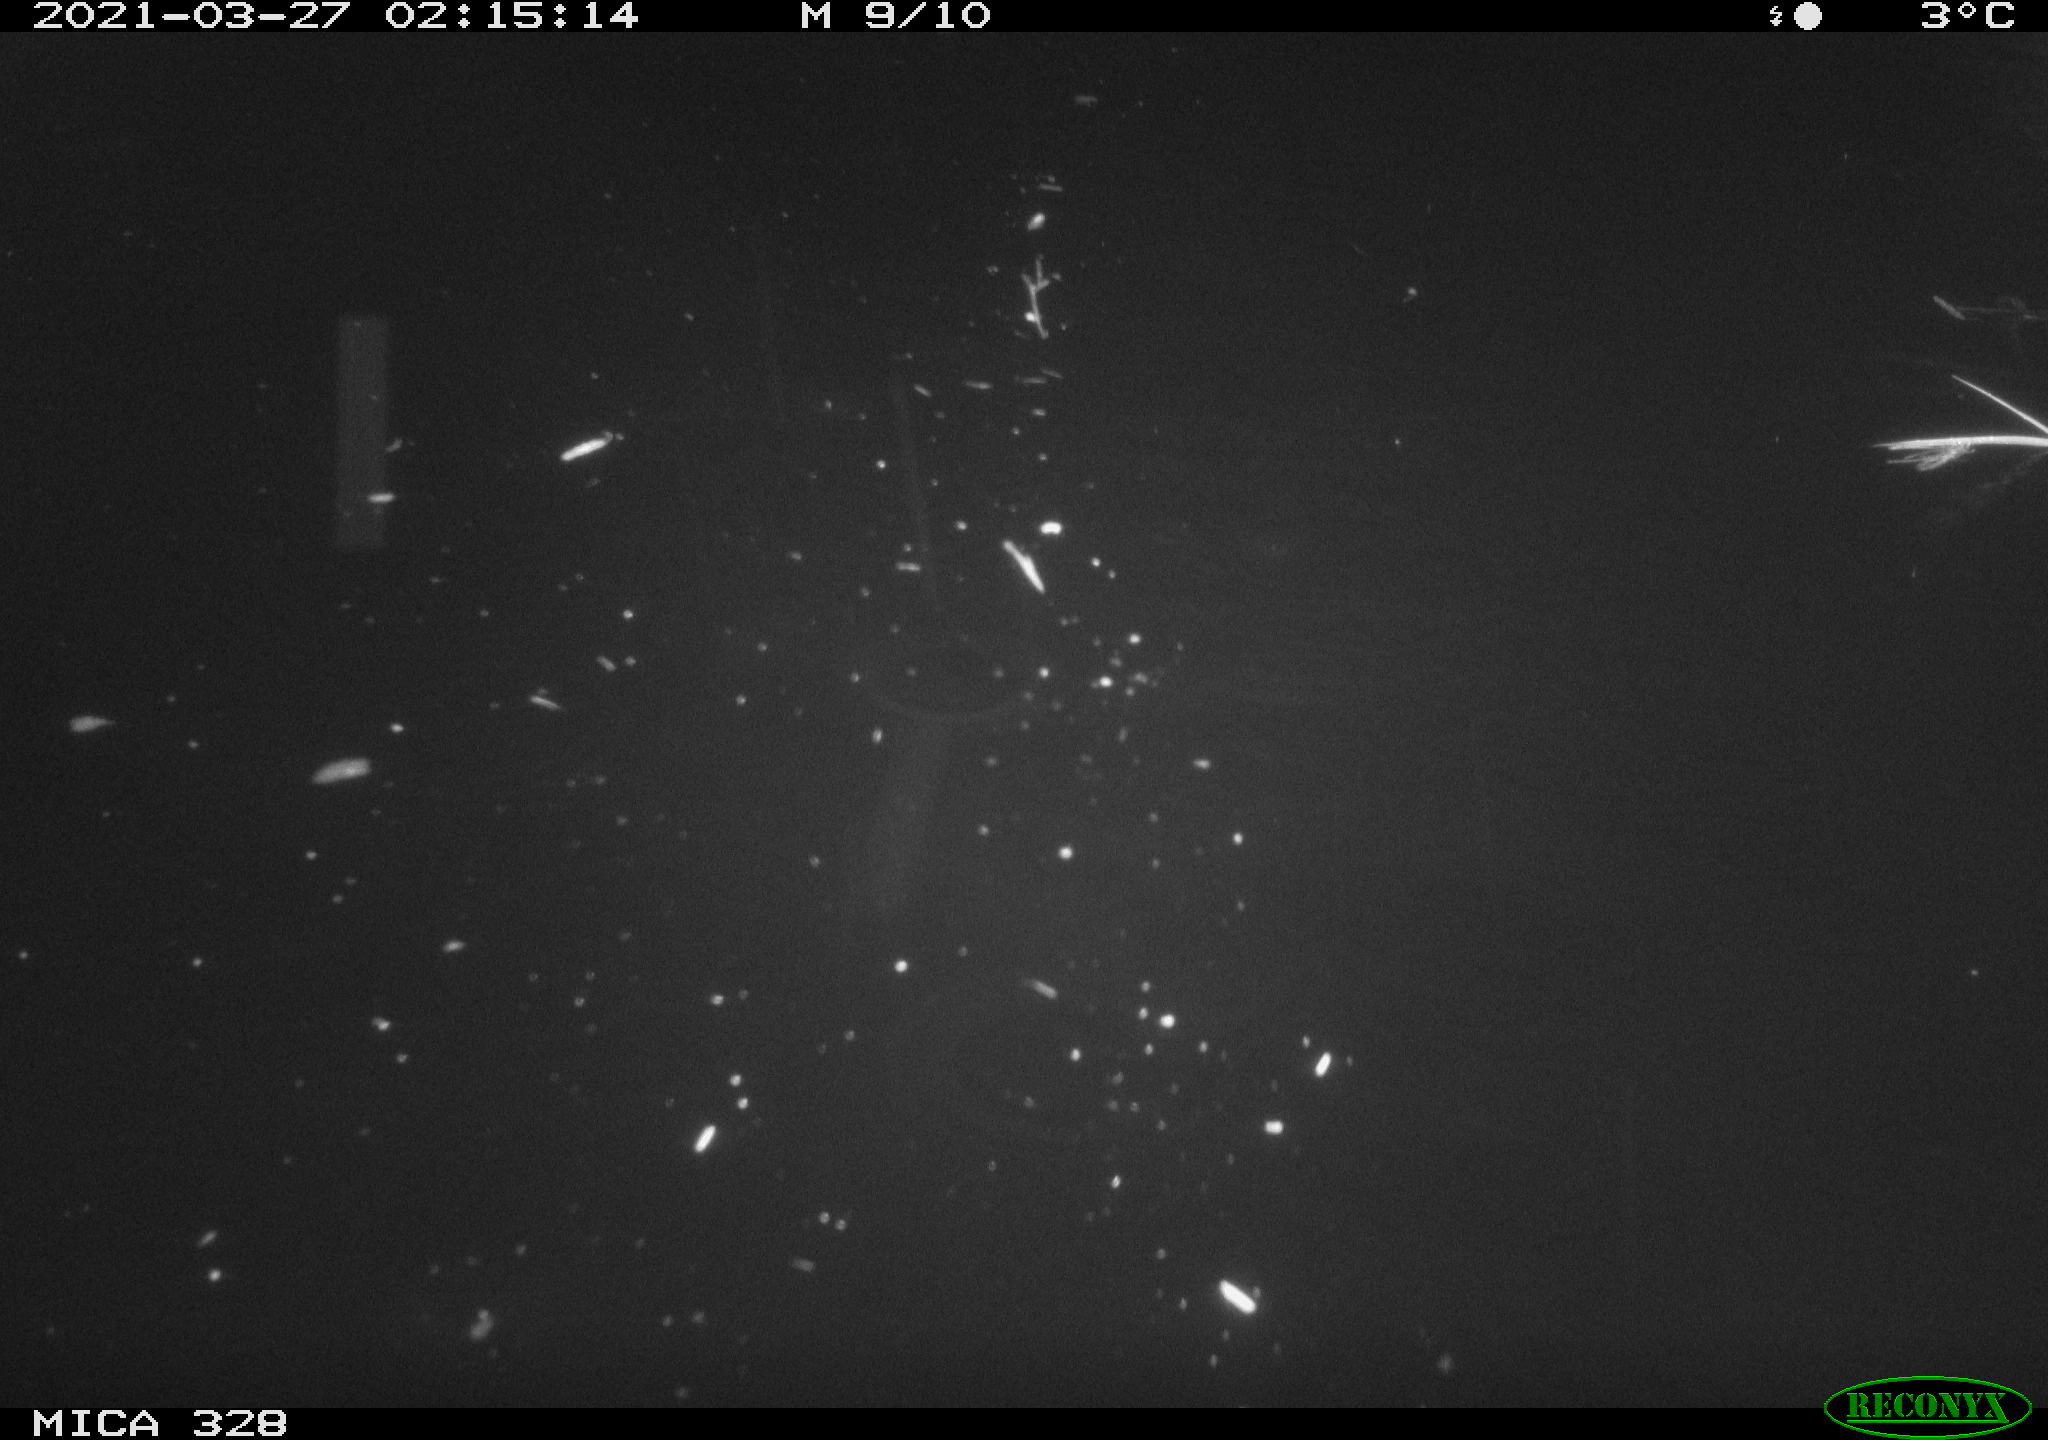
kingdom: Animalia
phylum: Chordata
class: Mammalia
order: Rodentia
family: Cricetidae
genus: Ondatra
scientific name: Ondatra zibethicus
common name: Muskrat
